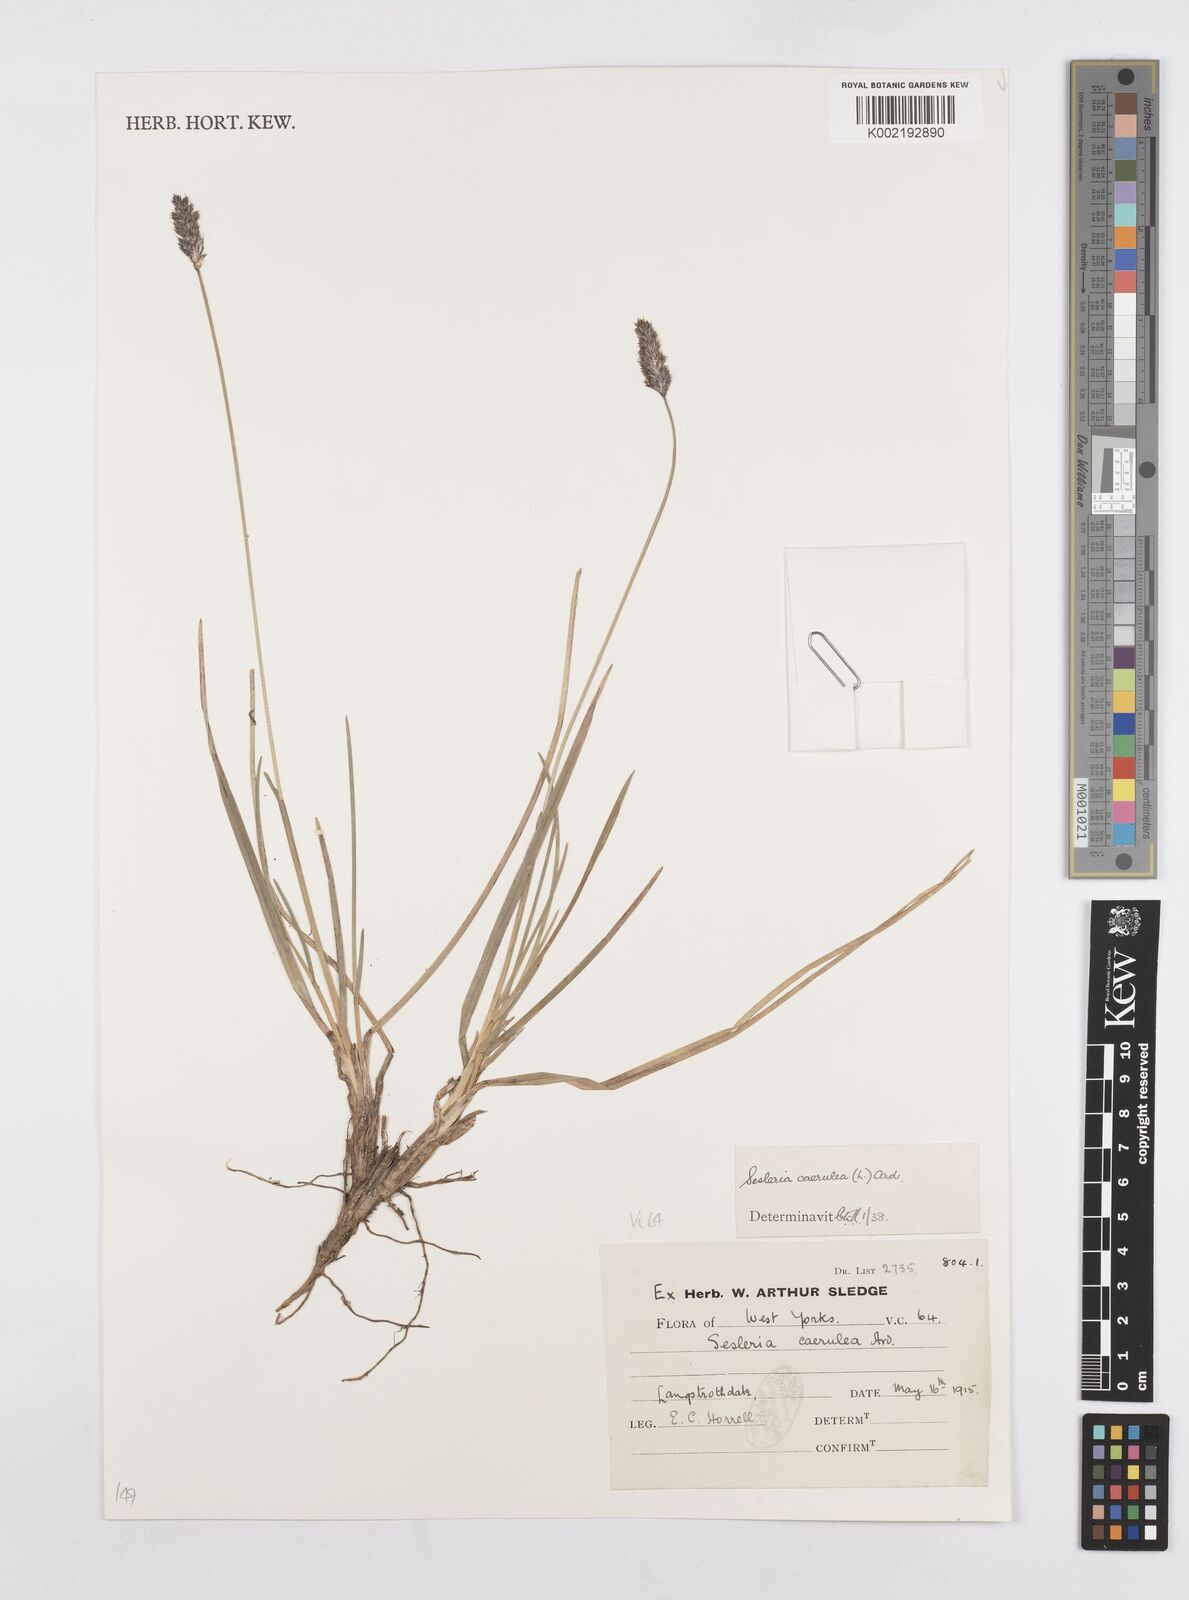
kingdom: Plantae
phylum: Tracheophyta
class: Liliopsida
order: Poales
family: Poaceae
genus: Sesleria
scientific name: Sesleria caerulea
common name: Blue moor-grass
